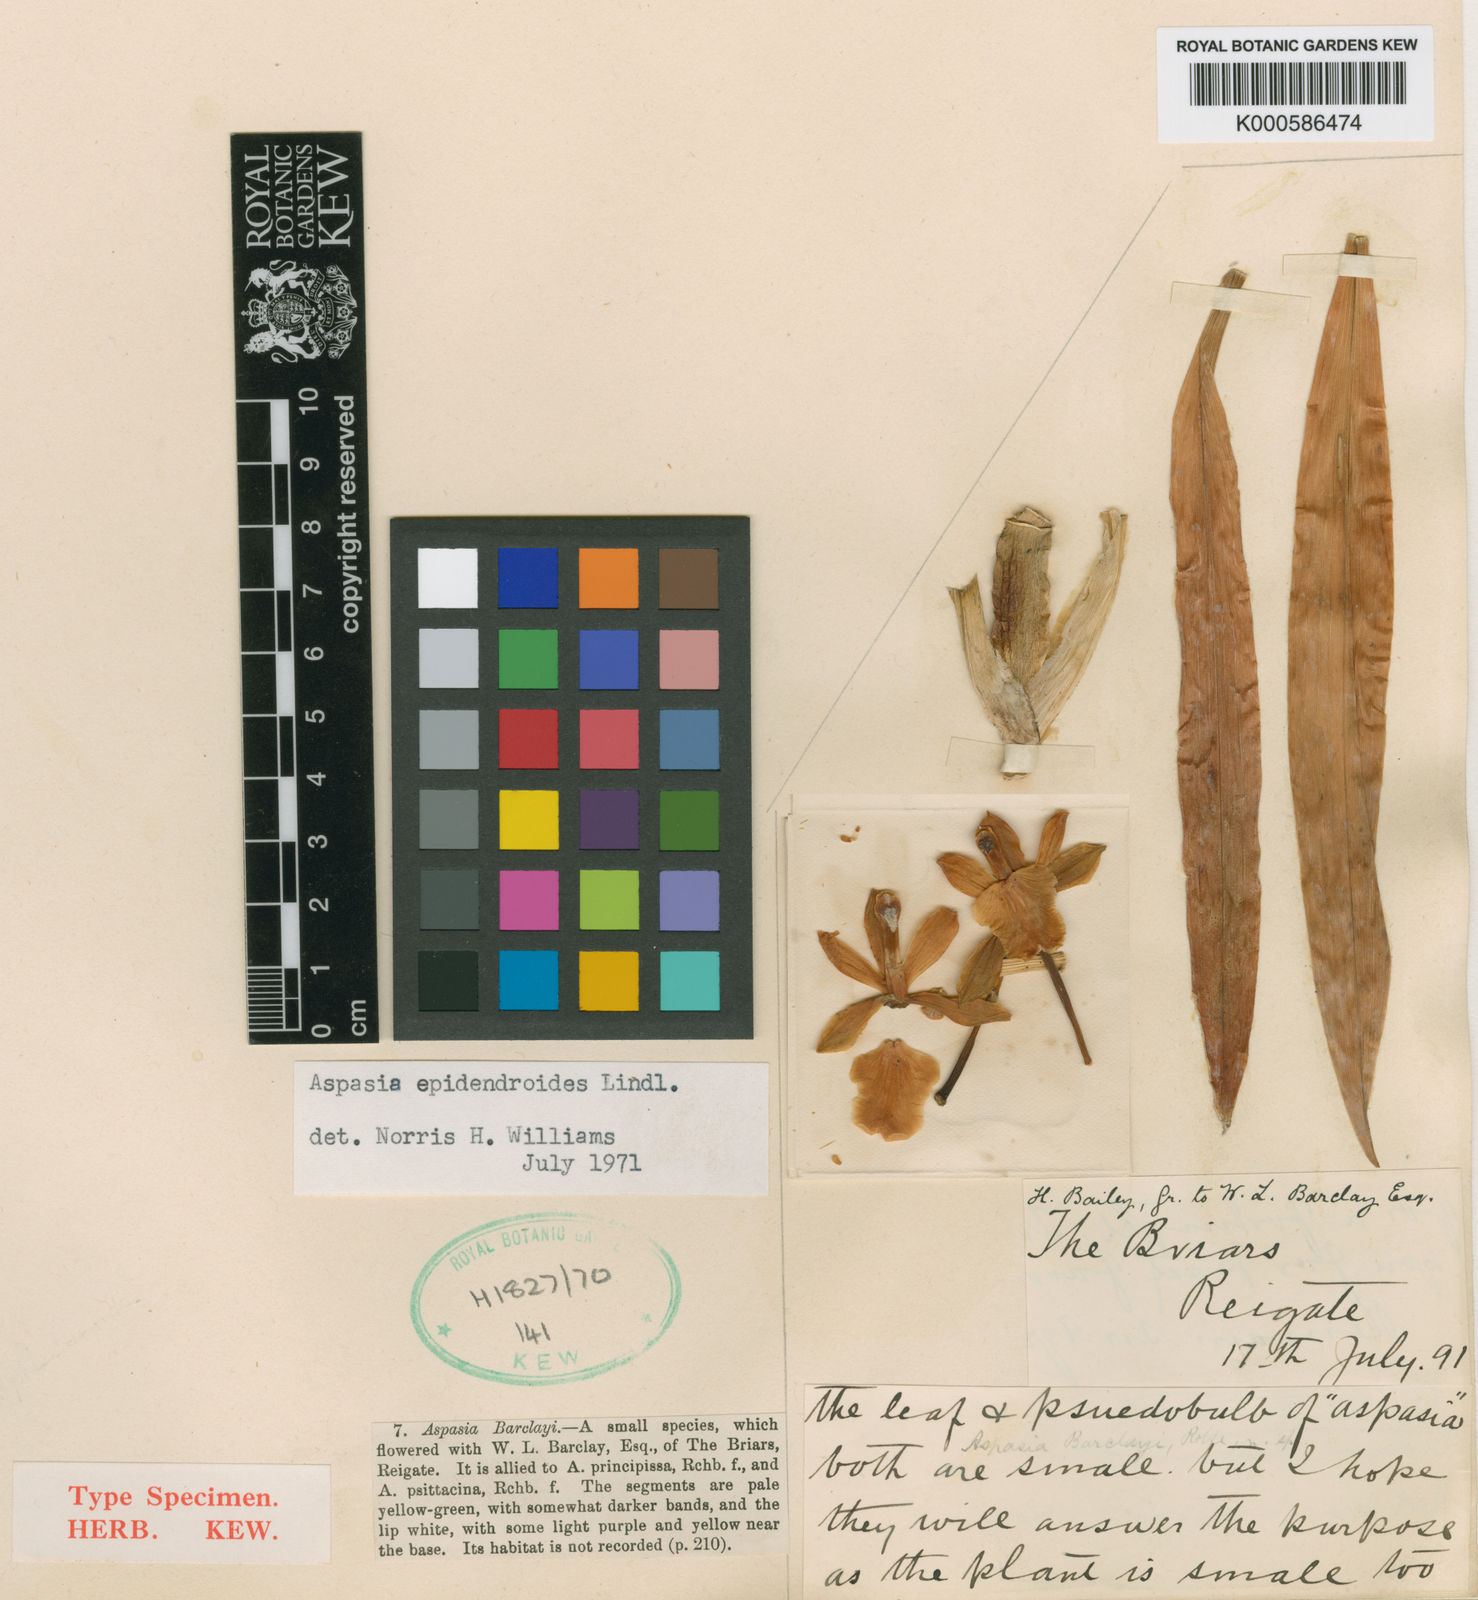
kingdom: Plantae
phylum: Tracheophyta
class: Liliopsida
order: Asparagales
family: Orchidaceae
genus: Aspasia
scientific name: Aspasia epidendroides
